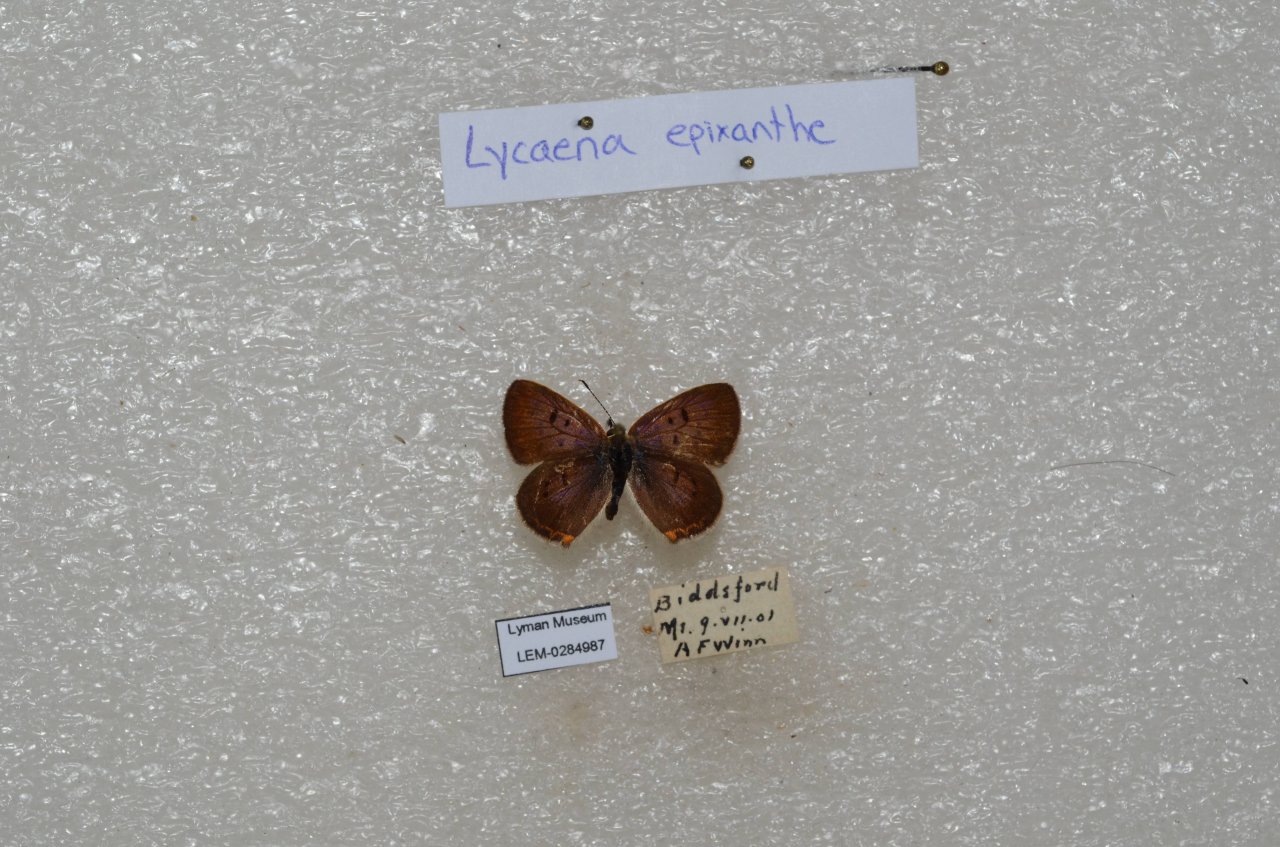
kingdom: Animalia
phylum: Arthropoda
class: Insecta
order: Lepidoptera
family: Sesiidae
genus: Sesia
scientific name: Sesia Lycaena epixanthe
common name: Bog Copper
